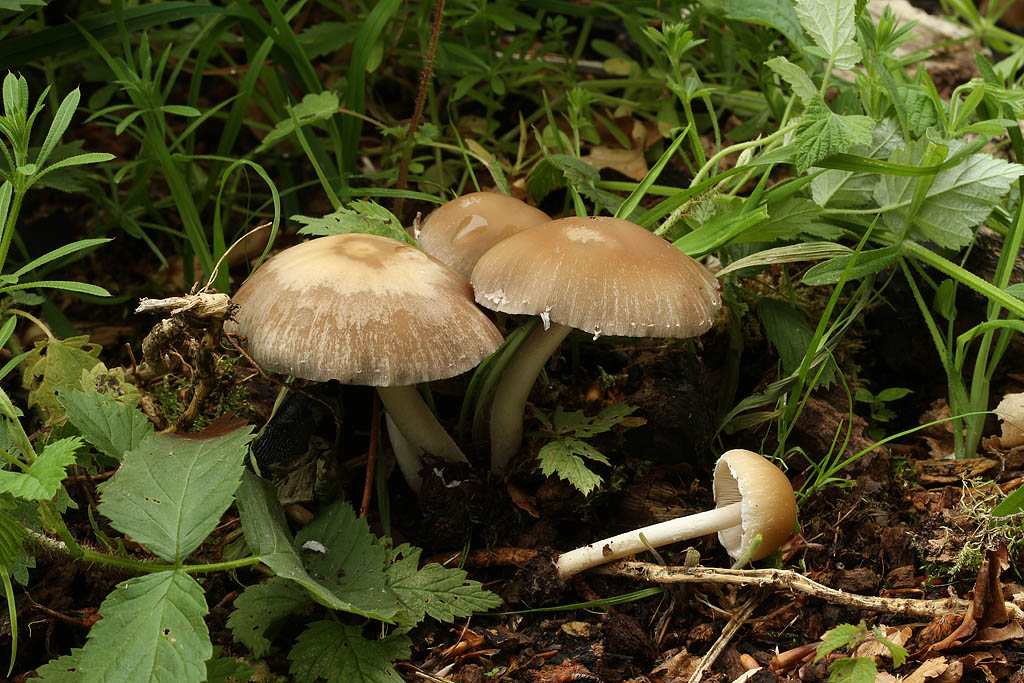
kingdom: Fungi
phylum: Basidiomycota
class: Agaricomycetes
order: Agaricales
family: Psathyrellaceae
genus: Candolleomyces
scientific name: Candolleomyces candolleanus
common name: Candolles mørkhat
